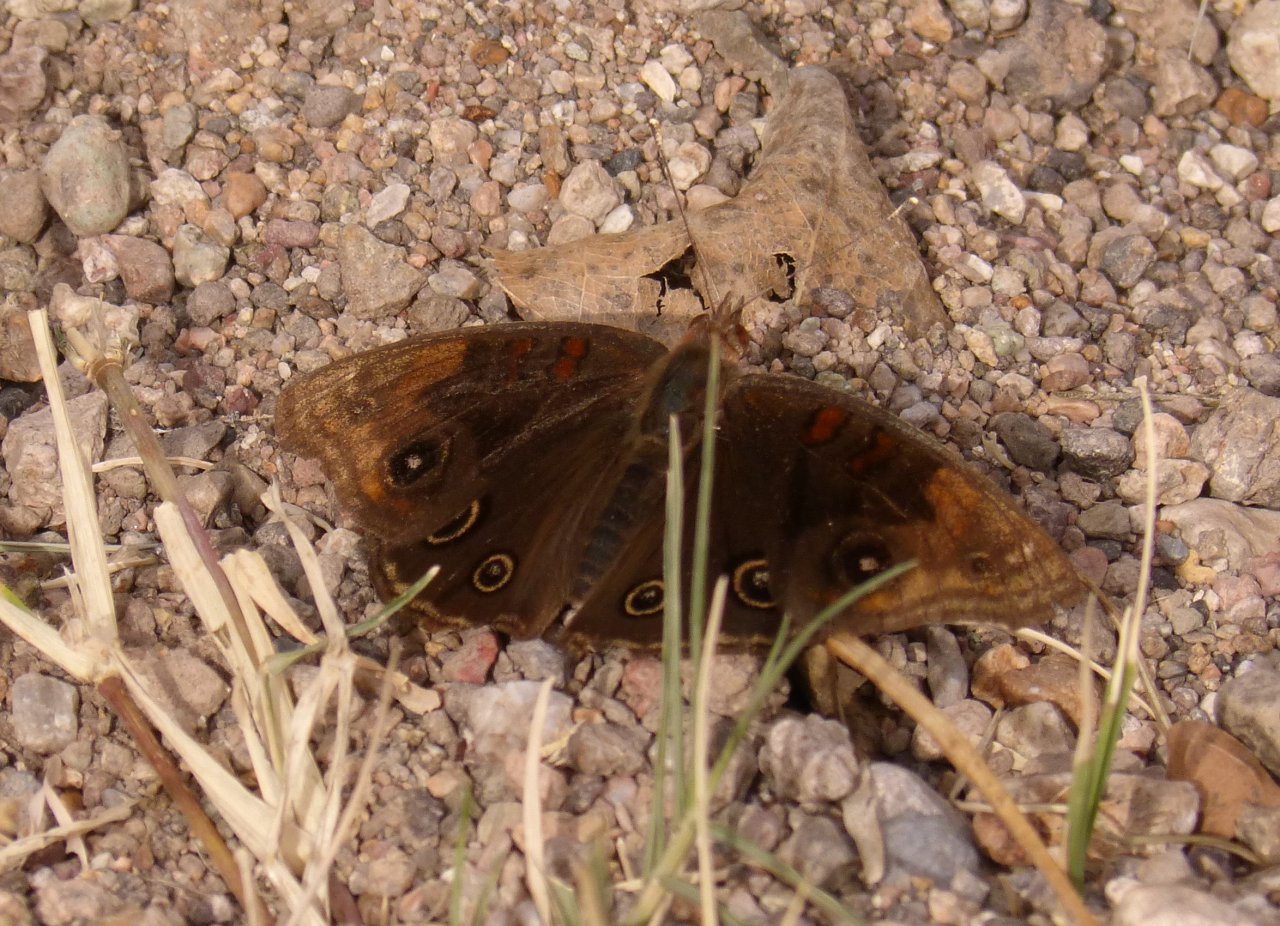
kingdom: Animalia
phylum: Arthropoda
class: Insecta
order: Lepidoptera
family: Nymphalidae
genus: Junonia
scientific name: Junonia lavinia
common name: Tropical Buckeye
